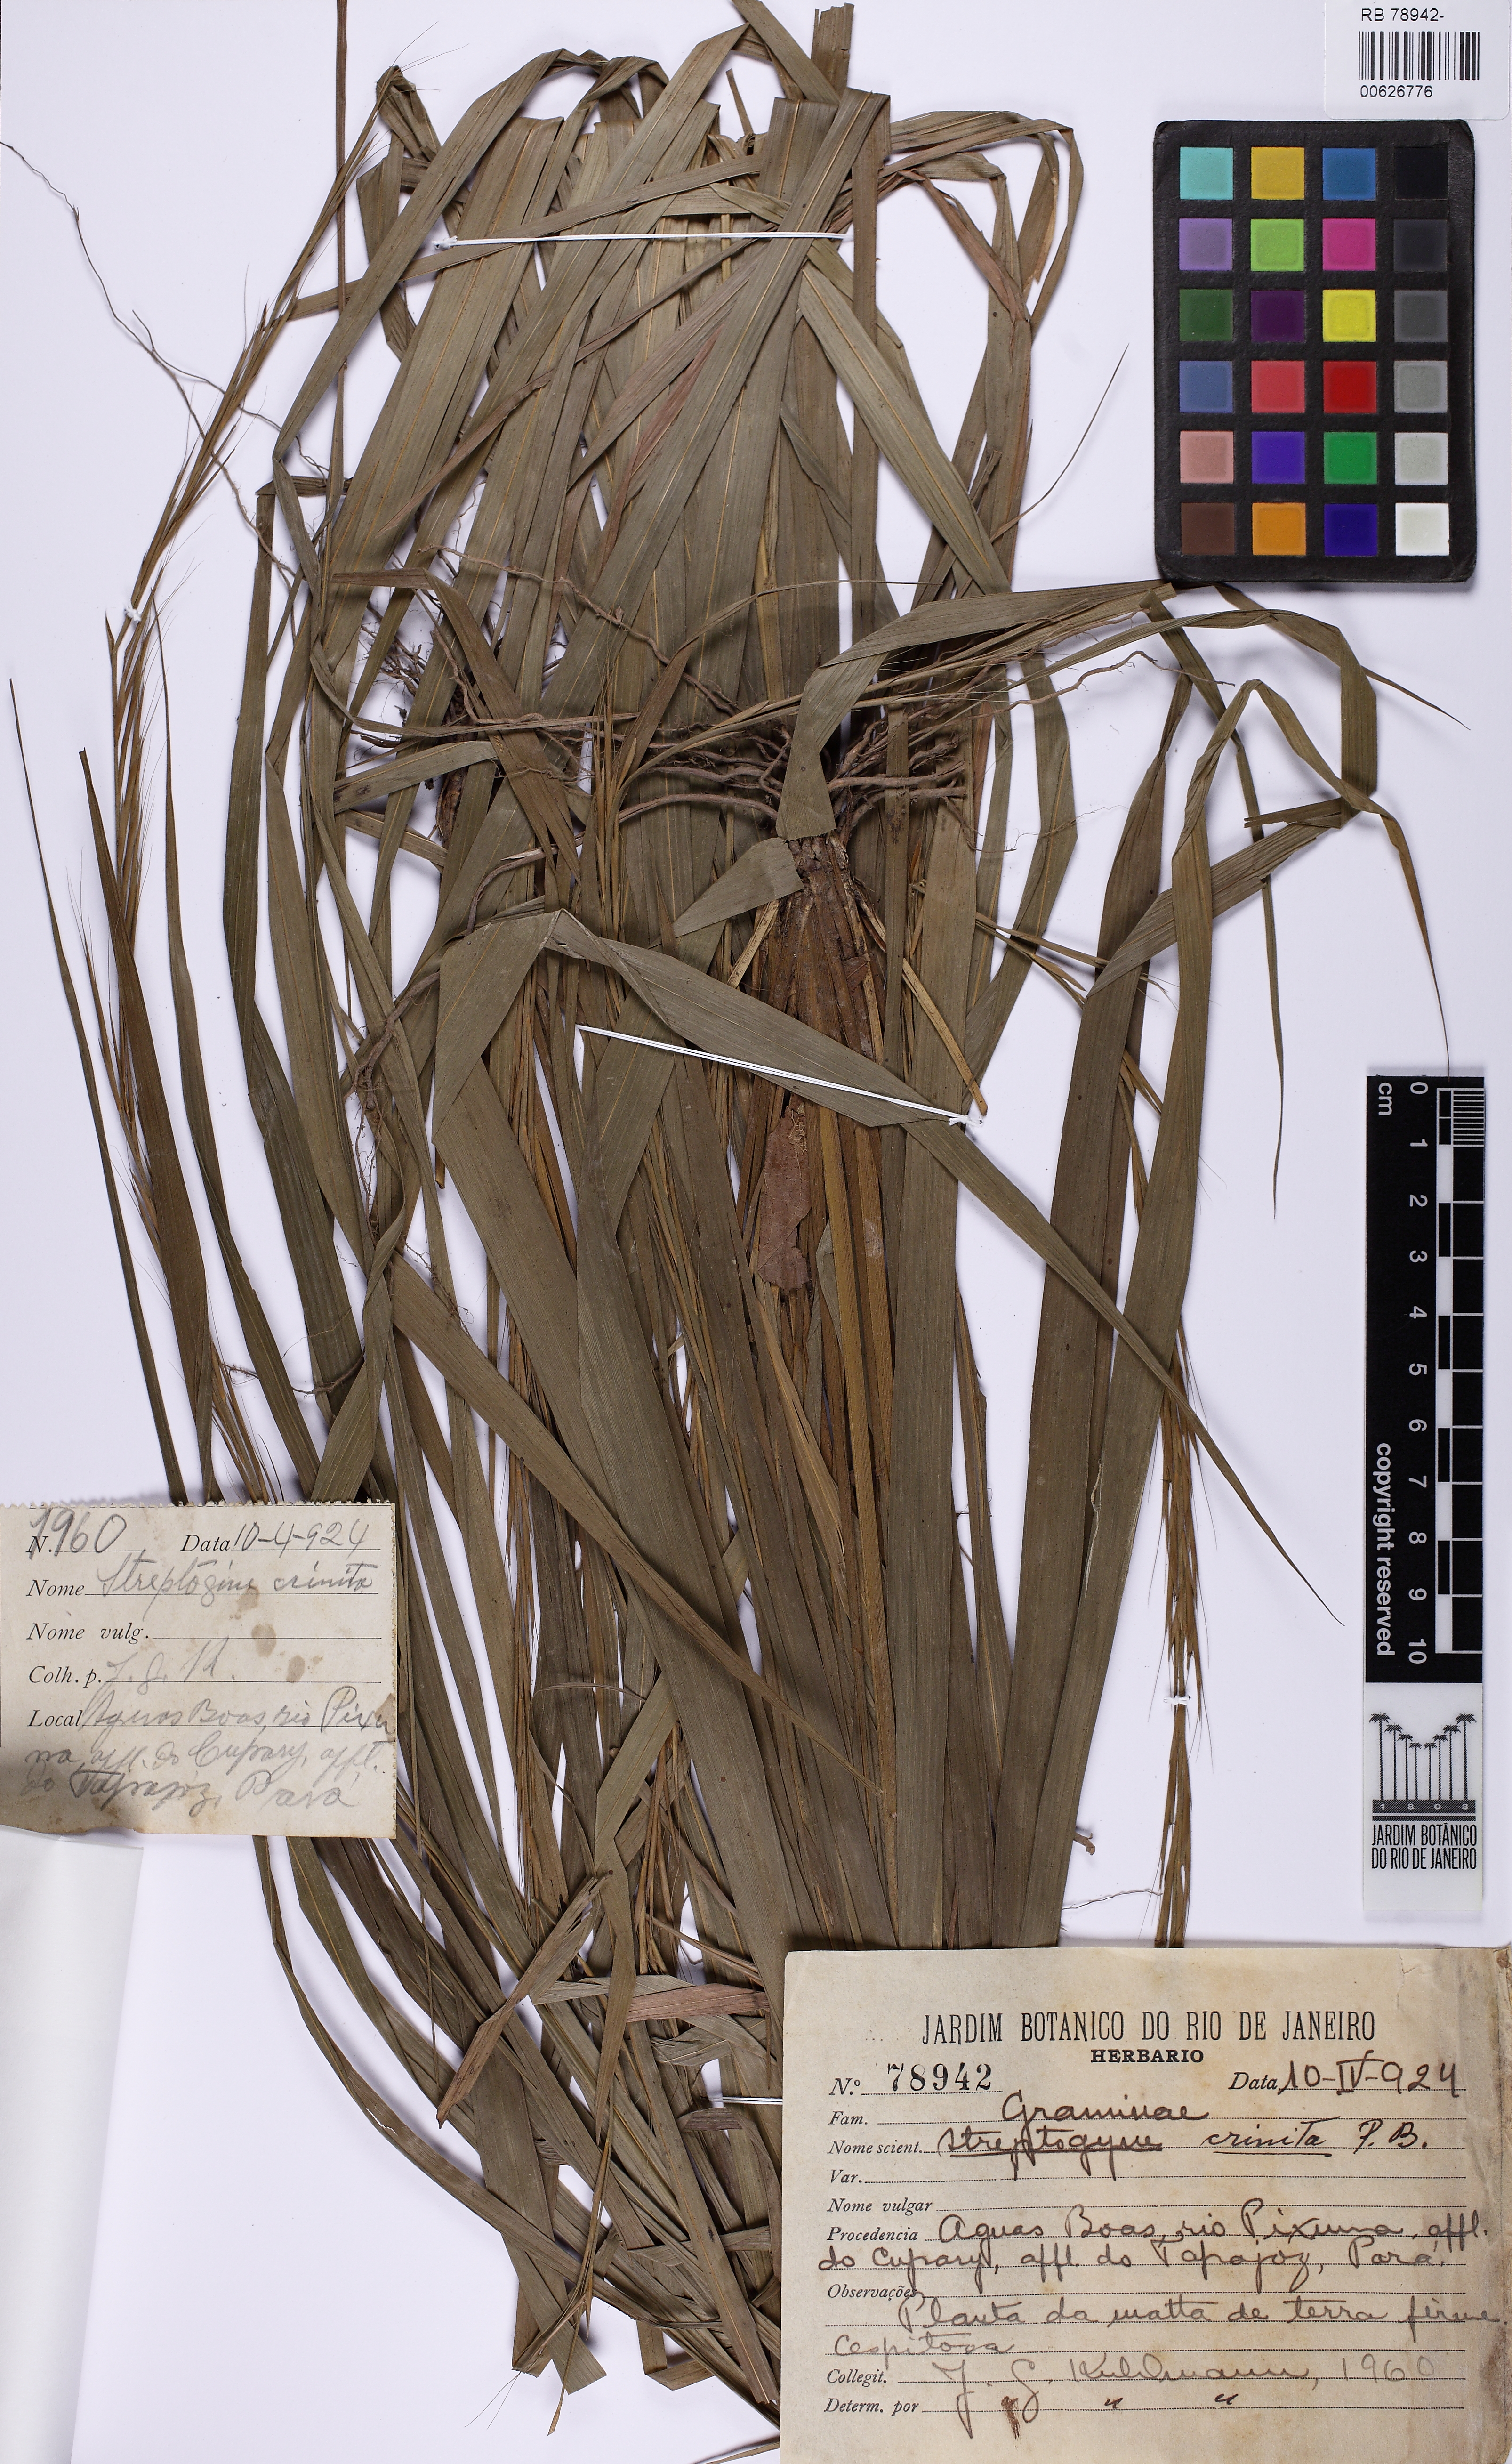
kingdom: Plantae
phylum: Tracheophyta
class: Liliopsida
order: Poales
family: Poaceae
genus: Streptogyna
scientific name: Streptogyna crinita
